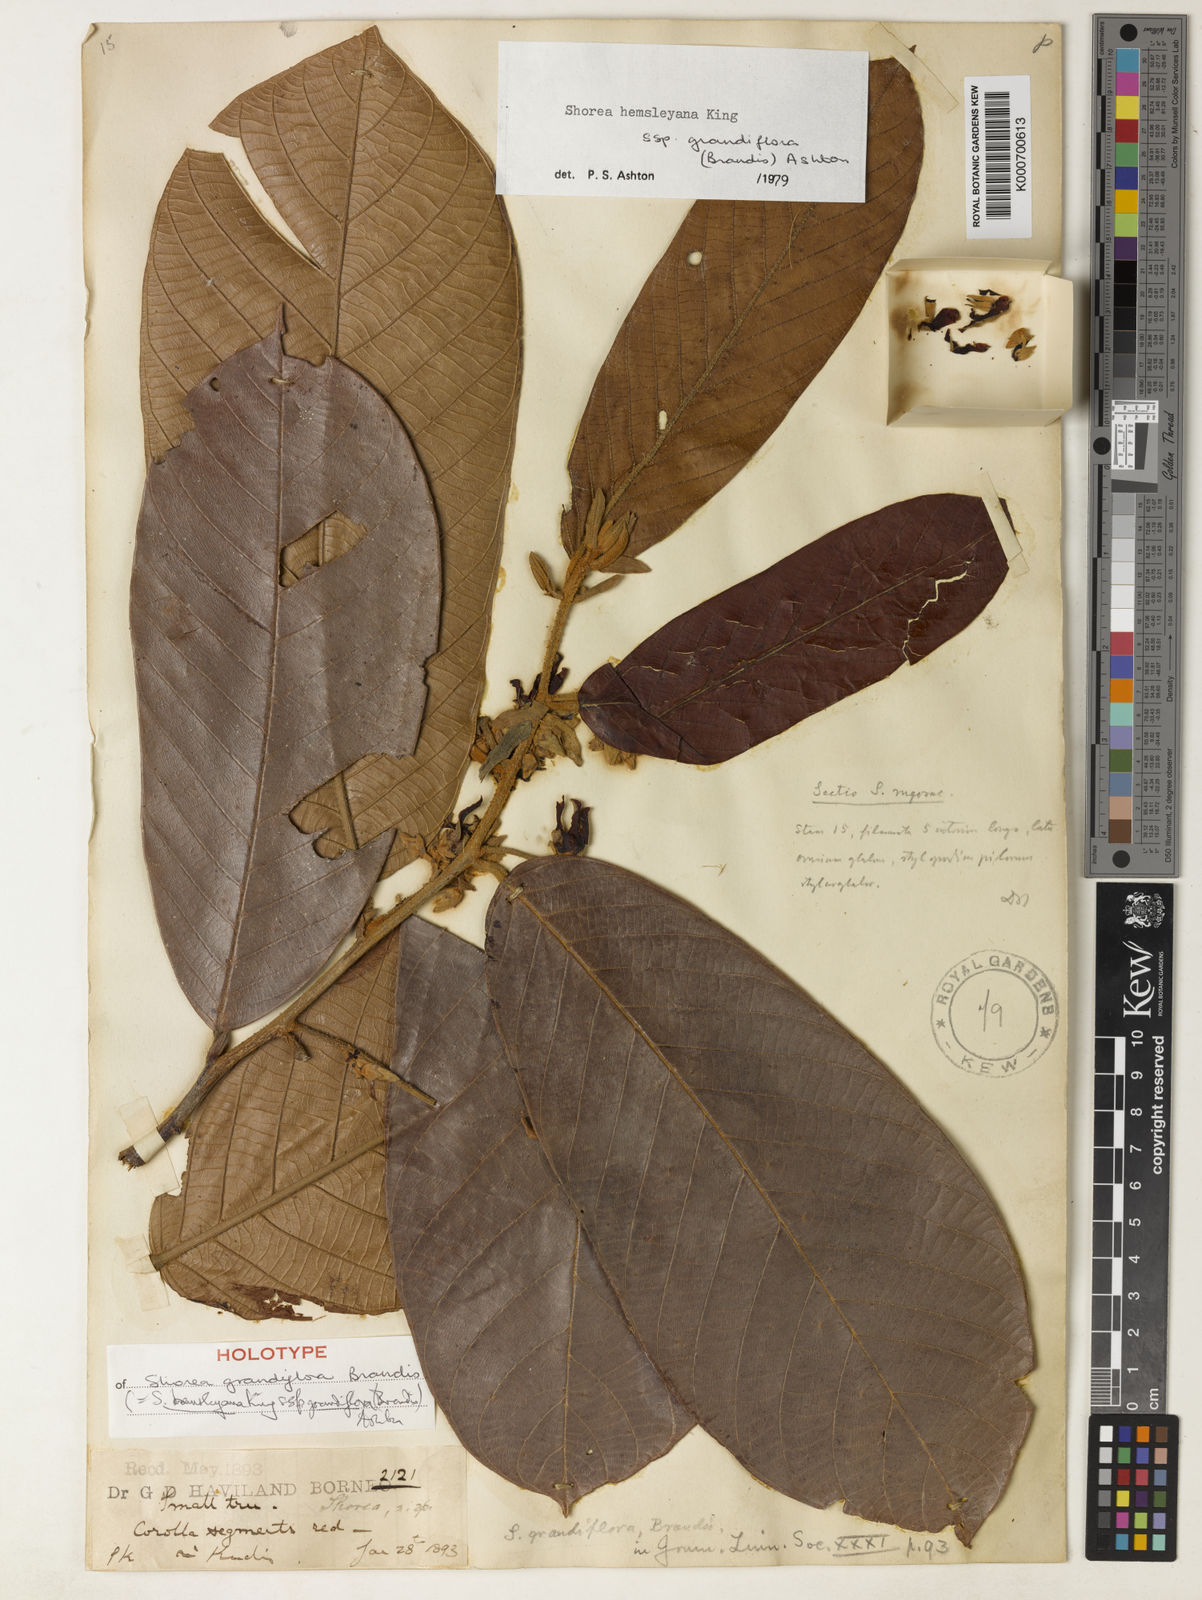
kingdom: Plantae
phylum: Tracheophyta
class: Magnoliopsida
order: Malvales
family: Dipterocarpaceae
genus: Shorea
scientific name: Shorea hemsleyana
